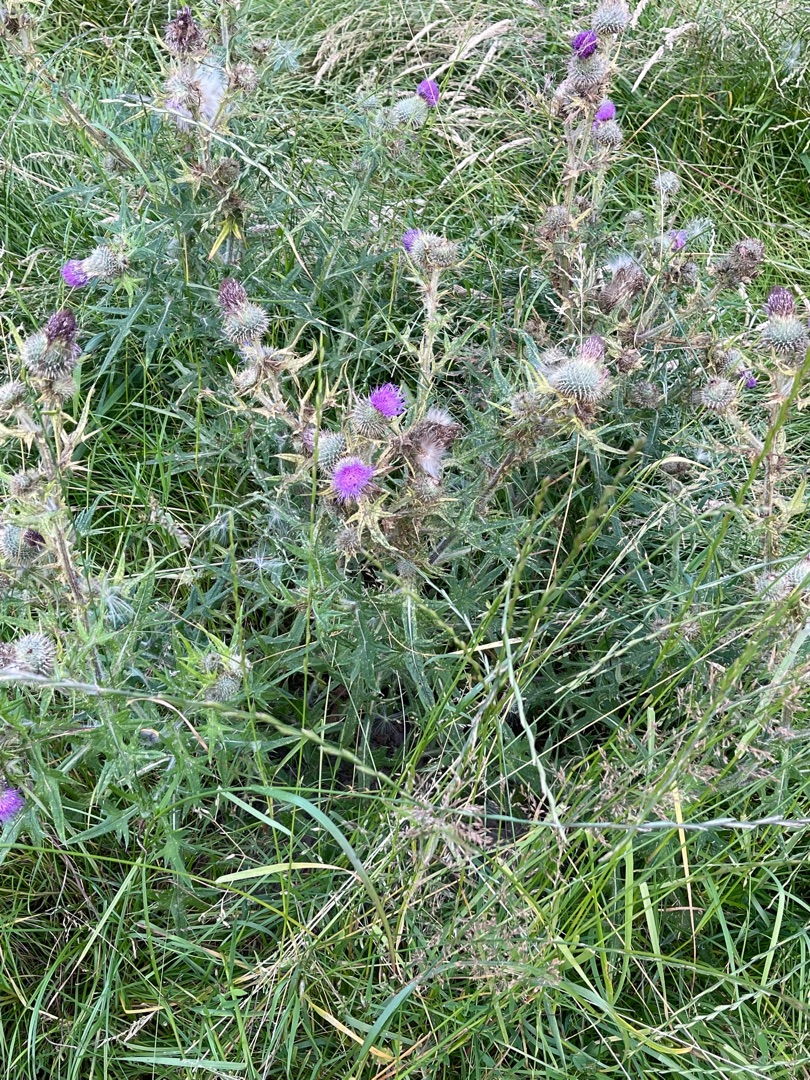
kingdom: Plantae
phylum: Tracheophyta
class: Magnoliopsida
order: Asterales
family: Asteraceae
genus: Cirsium
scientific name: Cirsium vulgare
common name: Horse-tidsel
